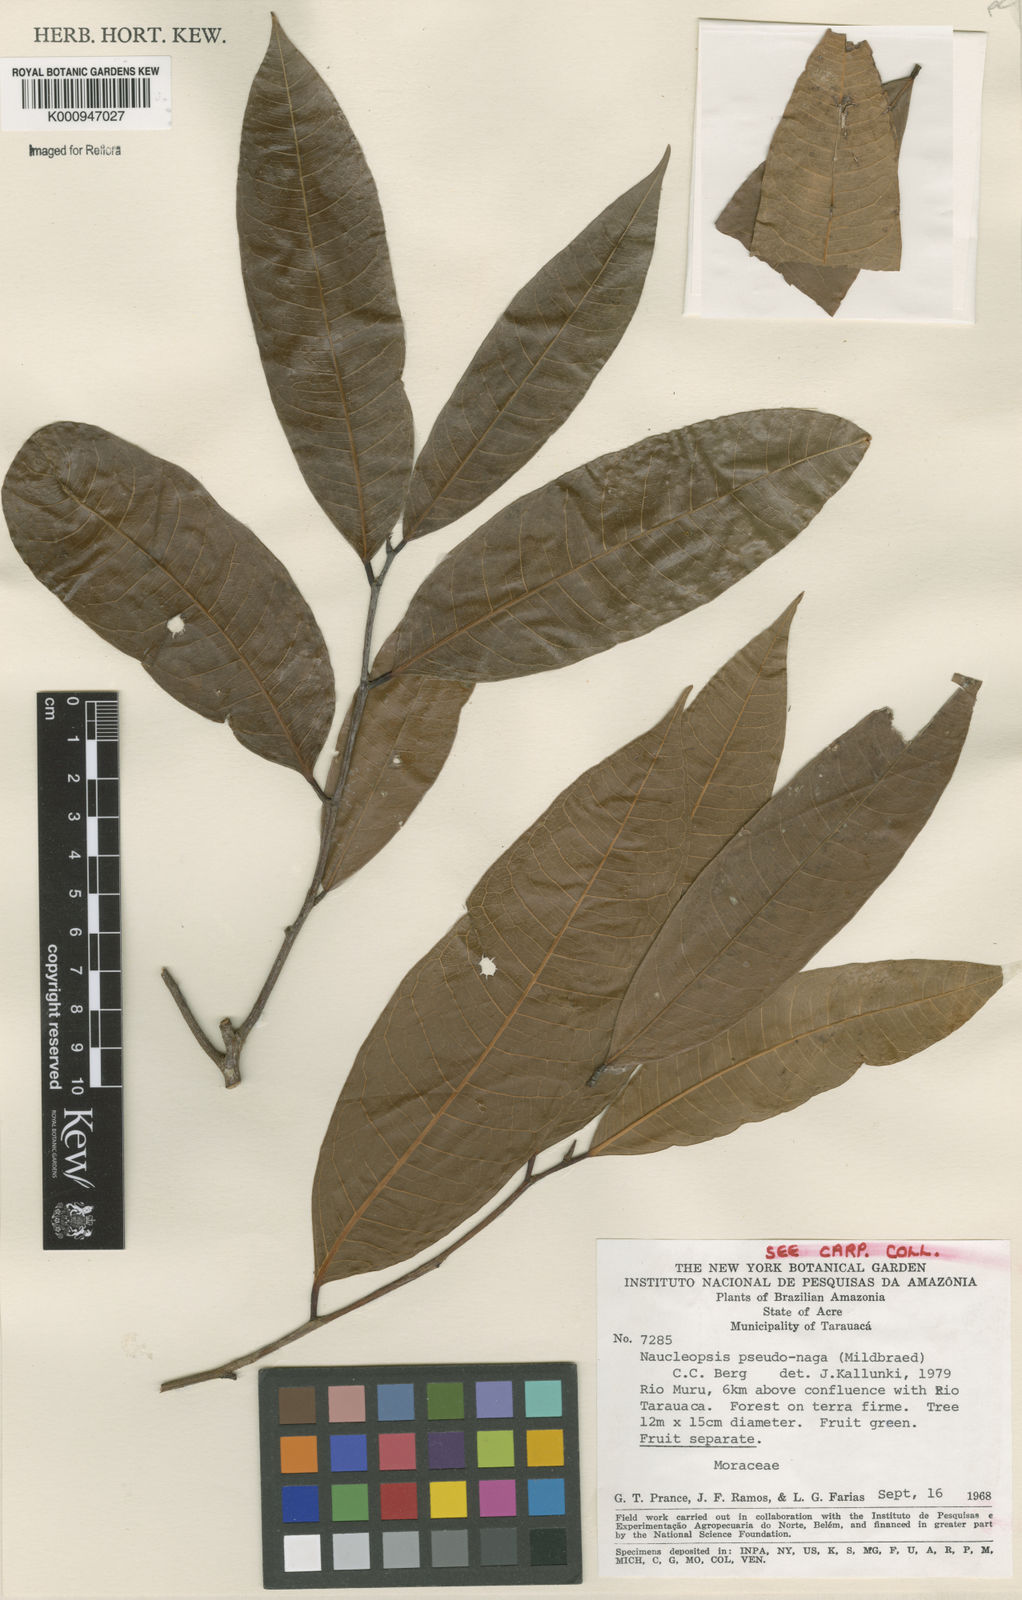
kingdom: Plantae
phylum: Tracheophyta
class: Magnoliopsida
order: Rosales
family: Moraceae
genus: Naucleopsis
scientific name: Naucleopsis pseudonaga
